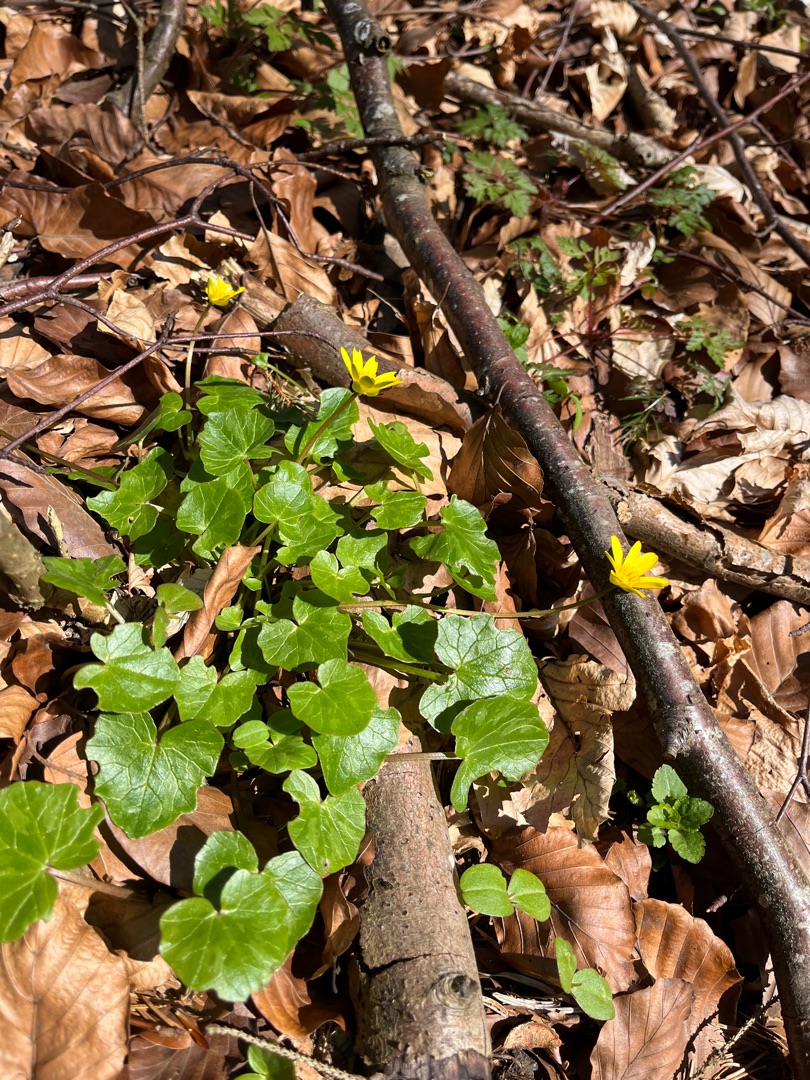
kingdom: Plantae
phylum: Tracheophyta
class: Magnoliopsida
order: Ranunculales
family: Ranunculaceae
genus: Ficaria
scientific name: Ficaria verna
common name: Vorterod
